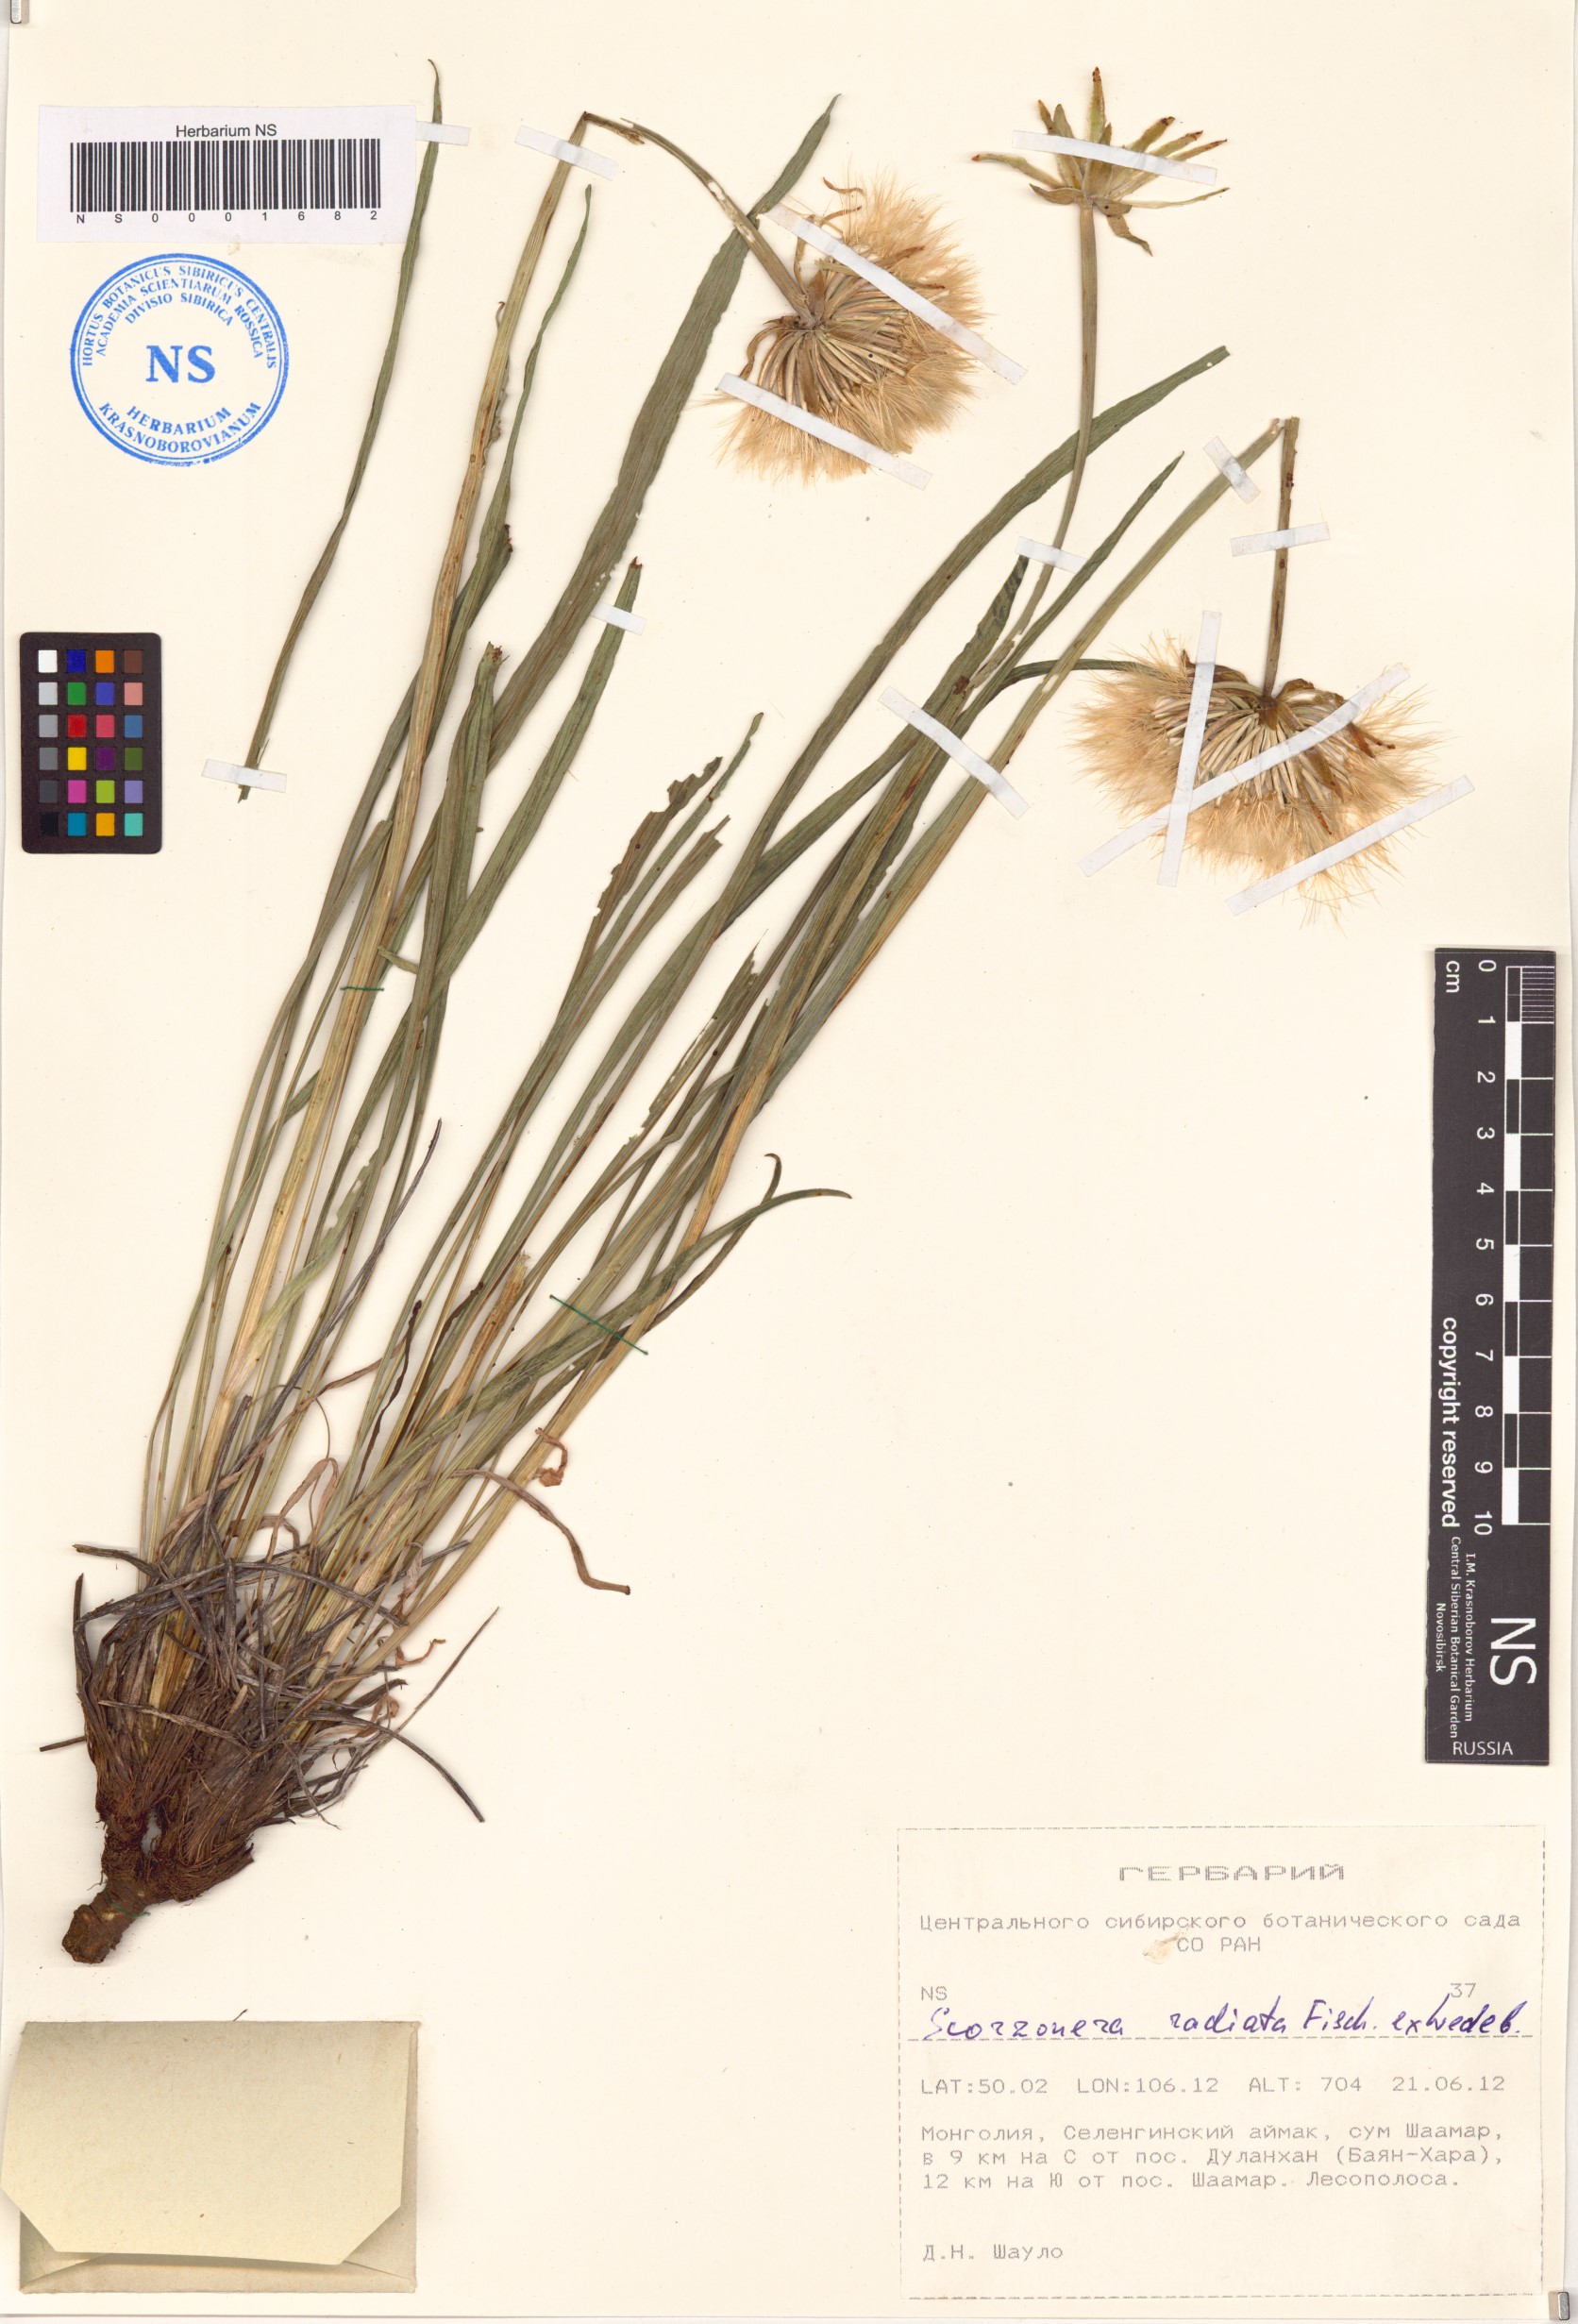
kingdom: Plantae
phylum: Tracheophyta
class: Magnoliopsida
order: Asterales
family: Asteraceae
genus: Scorzonera
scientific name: Scorzonera radiata
